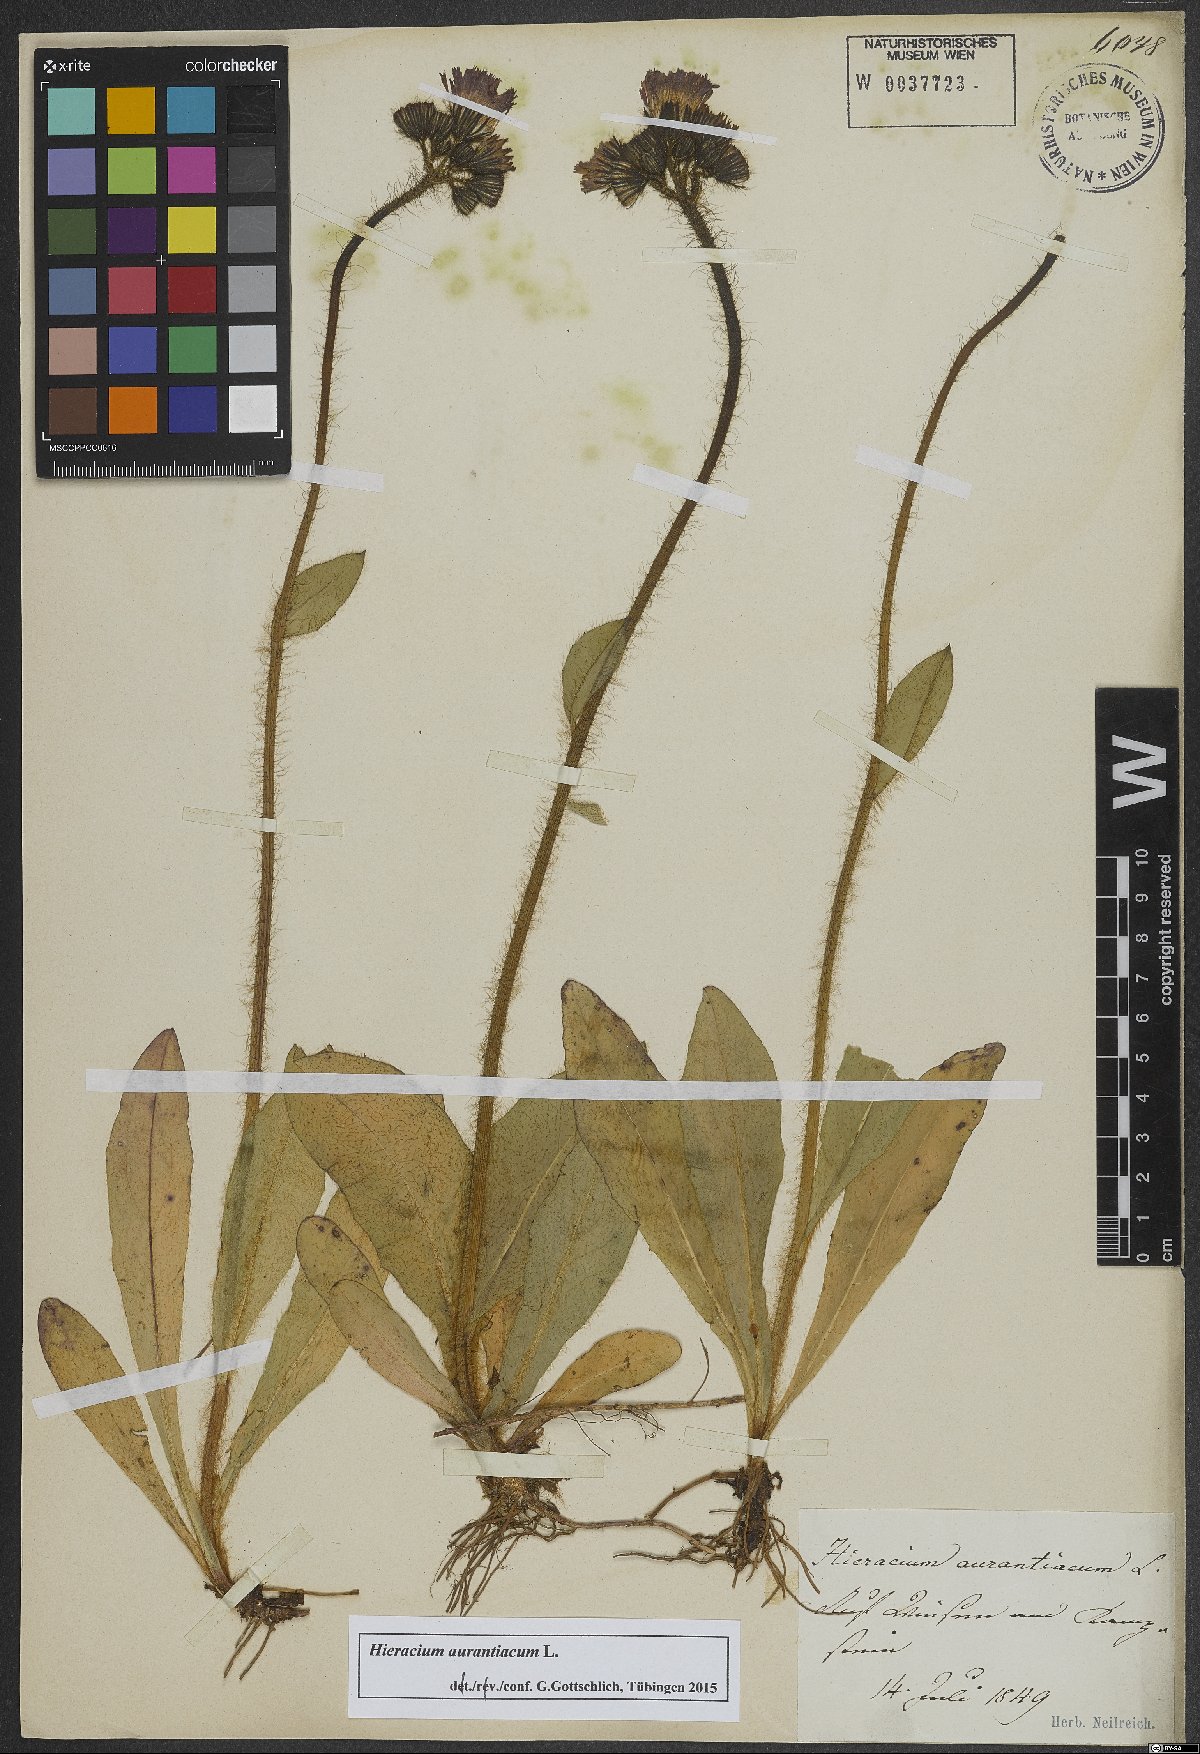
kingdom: Plantae
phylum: Tracheophyta
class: Magnoliopsida
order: Asterales
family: Asteraceae
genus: Pilosella
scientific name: Pilosella aurantiaca
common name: Fox-and-cubs
